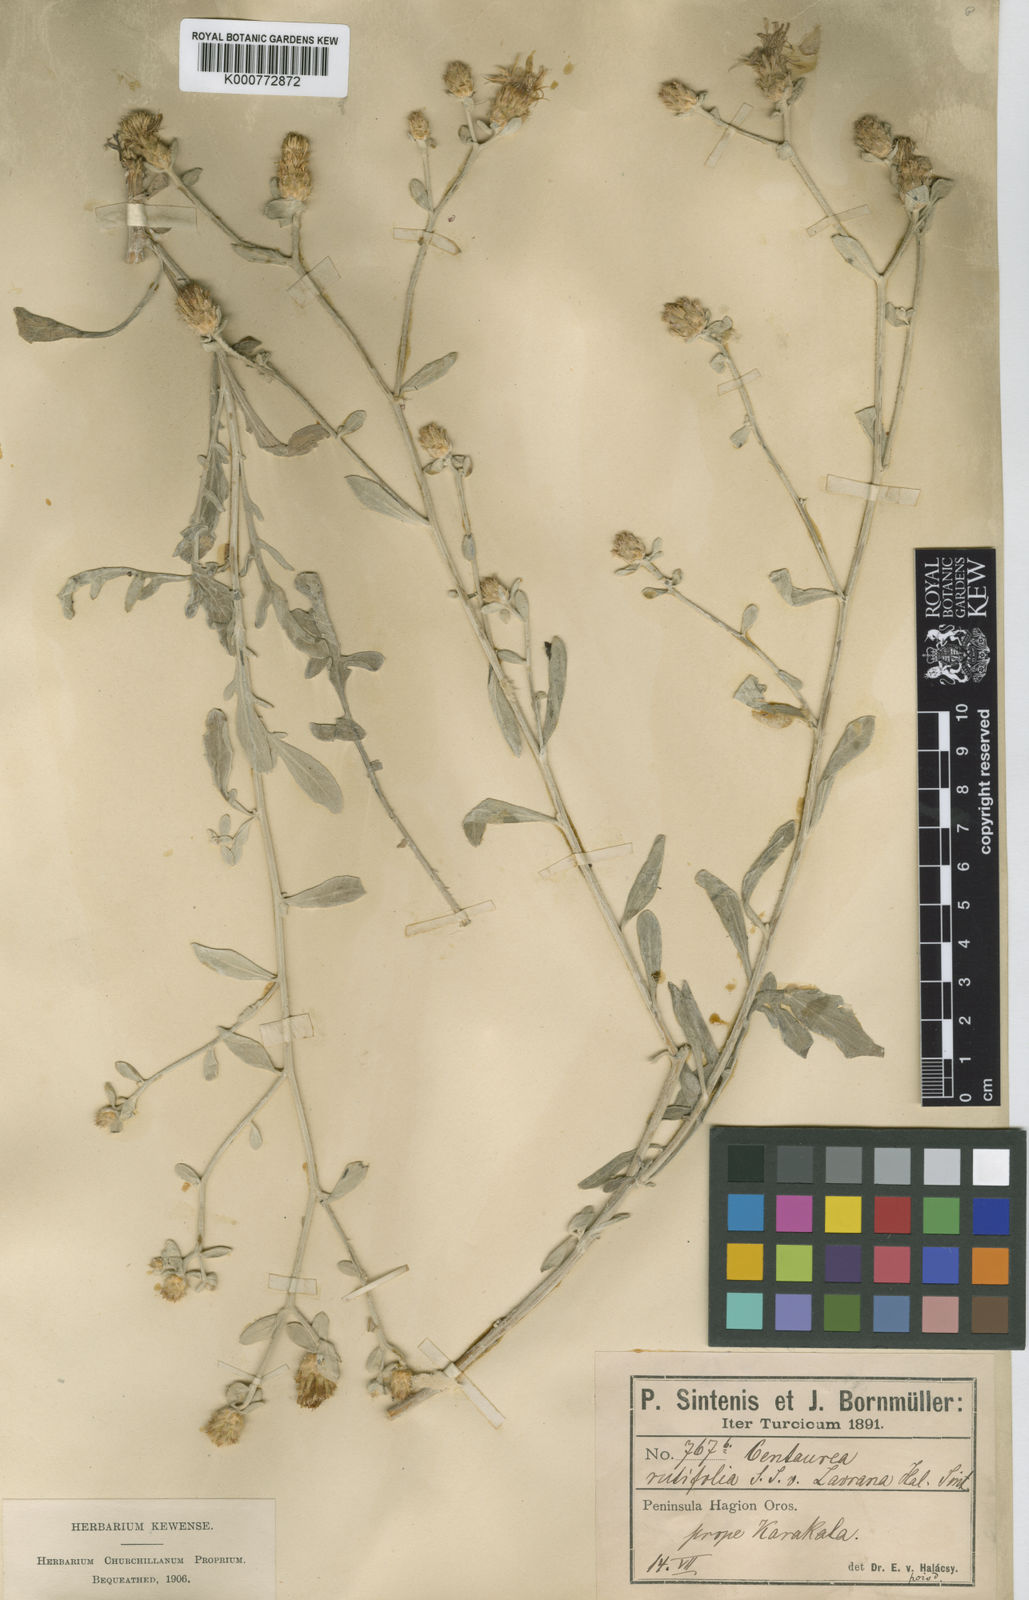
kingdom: Plantae
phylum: Tracheophyta
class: Magnoliopsida
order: Asterales
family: Asteraceae
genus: Centaurea
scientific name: Centaurea rutifolia
